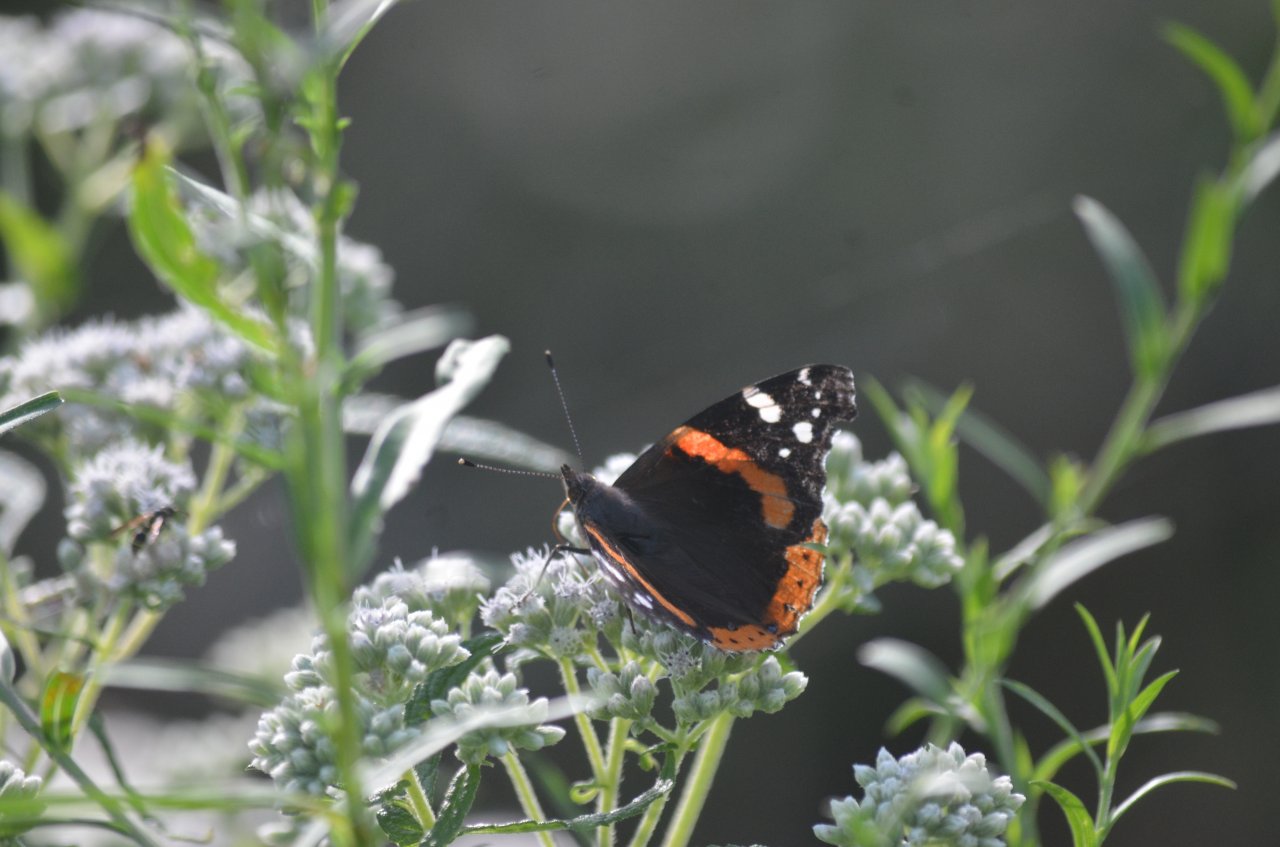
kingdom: Animalia
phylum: Arthropoda
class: Insecta
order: Lepidoptera
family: Nymphalidae
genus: Vanessa
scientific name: Vanessa atalanta
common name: Red Admiral
